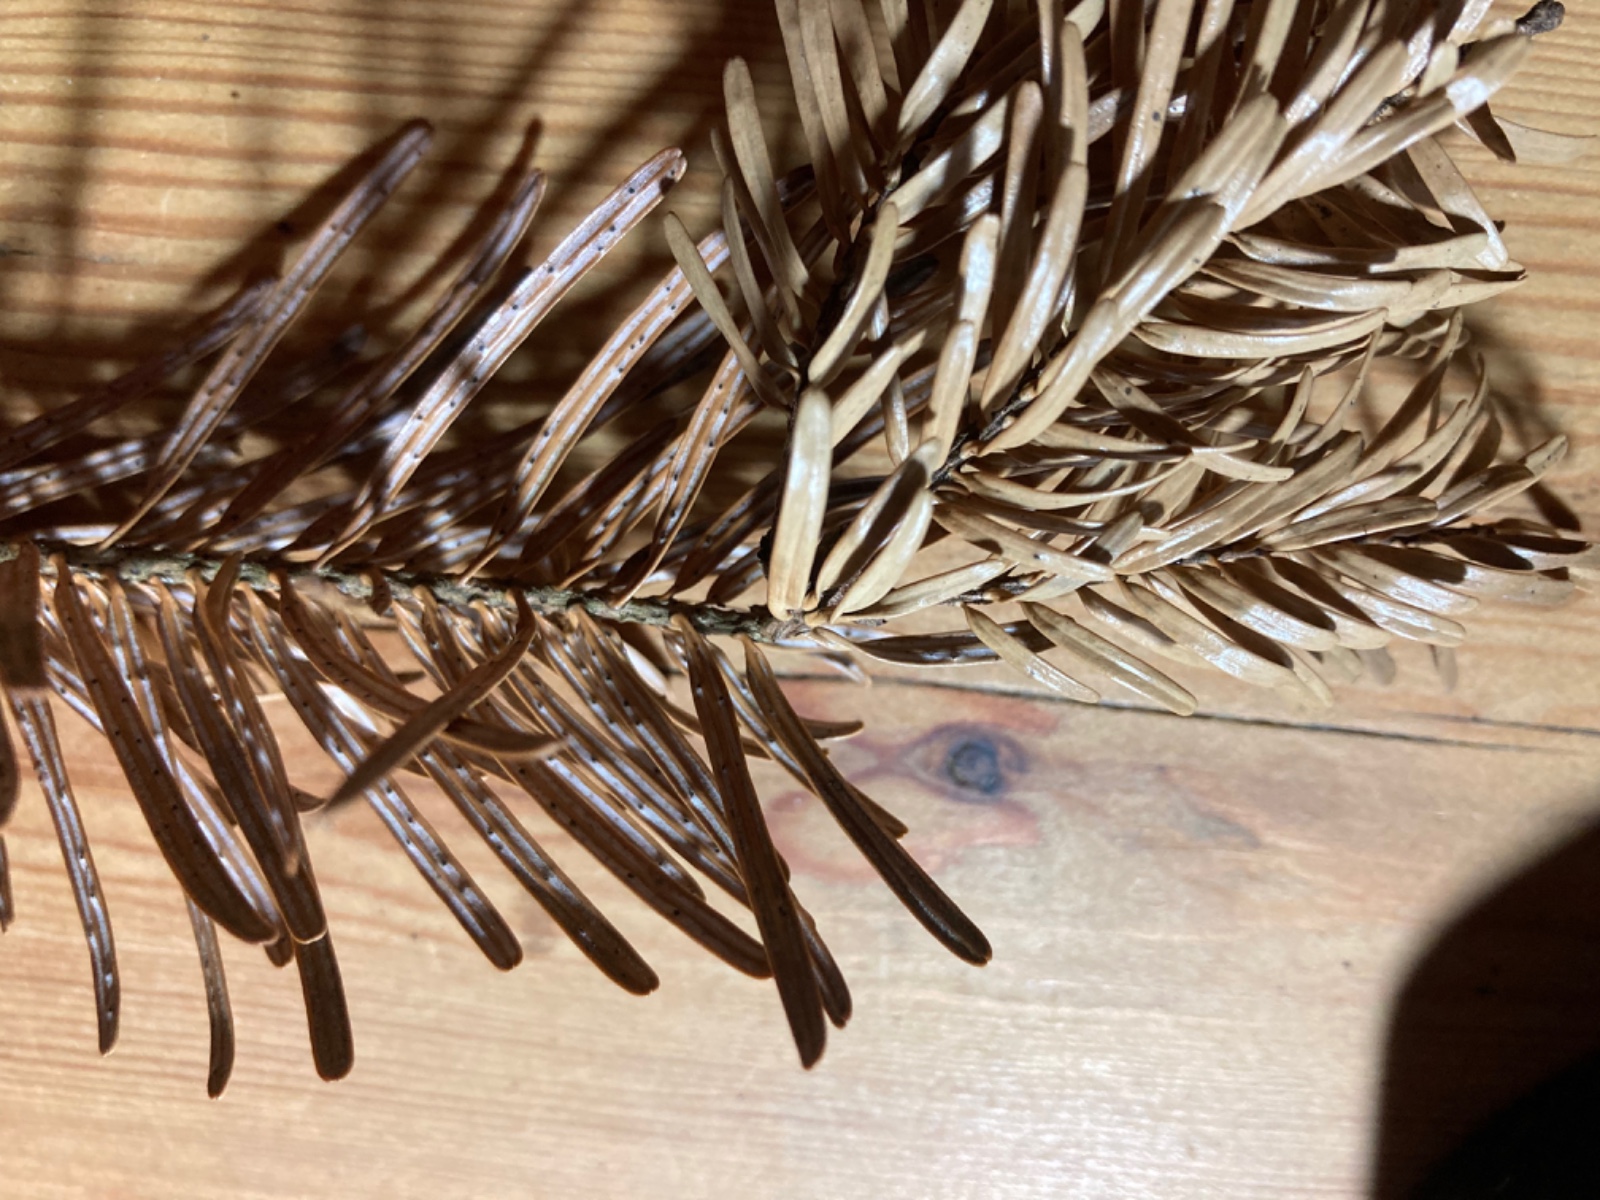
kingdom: Fungi
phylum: Ascomycota
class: Sordariomycetes
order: Diaporthales
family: Valsaceae
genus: Cytospora
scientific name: Cytospora pinastri
